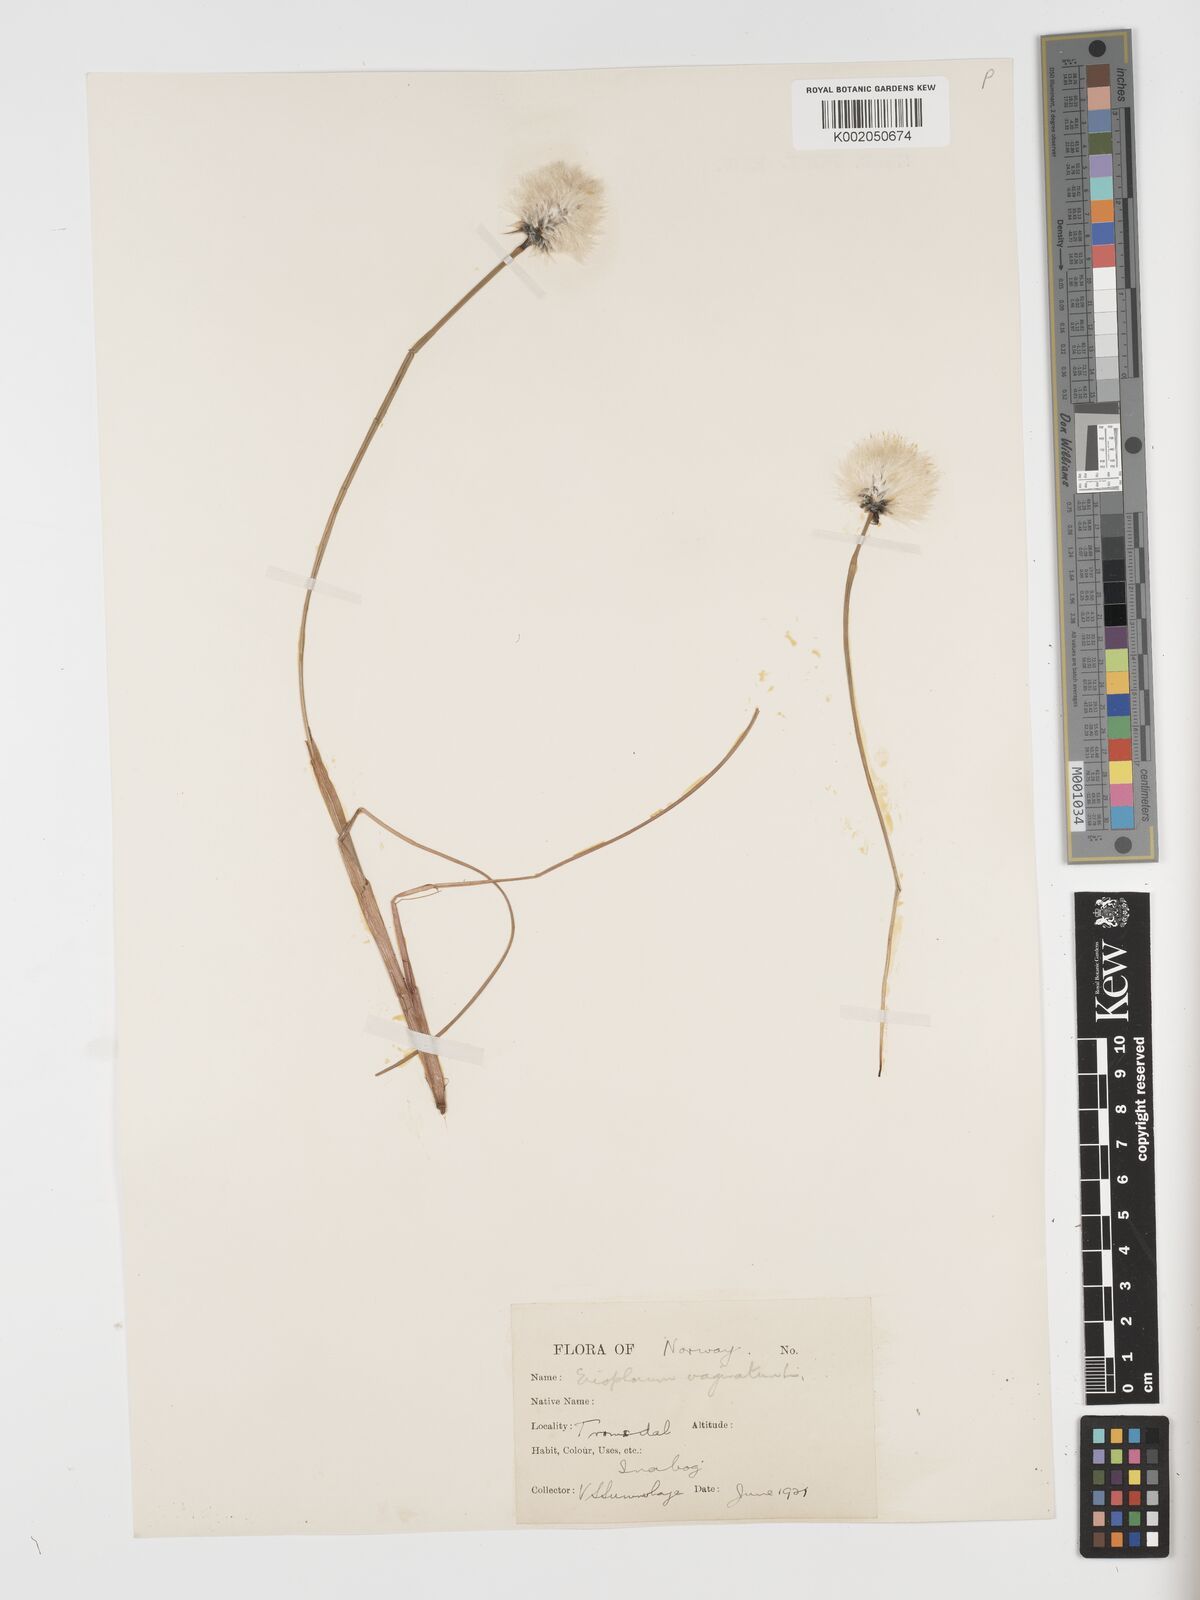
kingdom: Plantae
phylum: Tracheophyta
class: Liliopsida
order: Poales
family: Cyperaceae
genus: Eriophorum
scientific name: Eriophorum vaginatum
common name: Hare's-tail cottongrass
